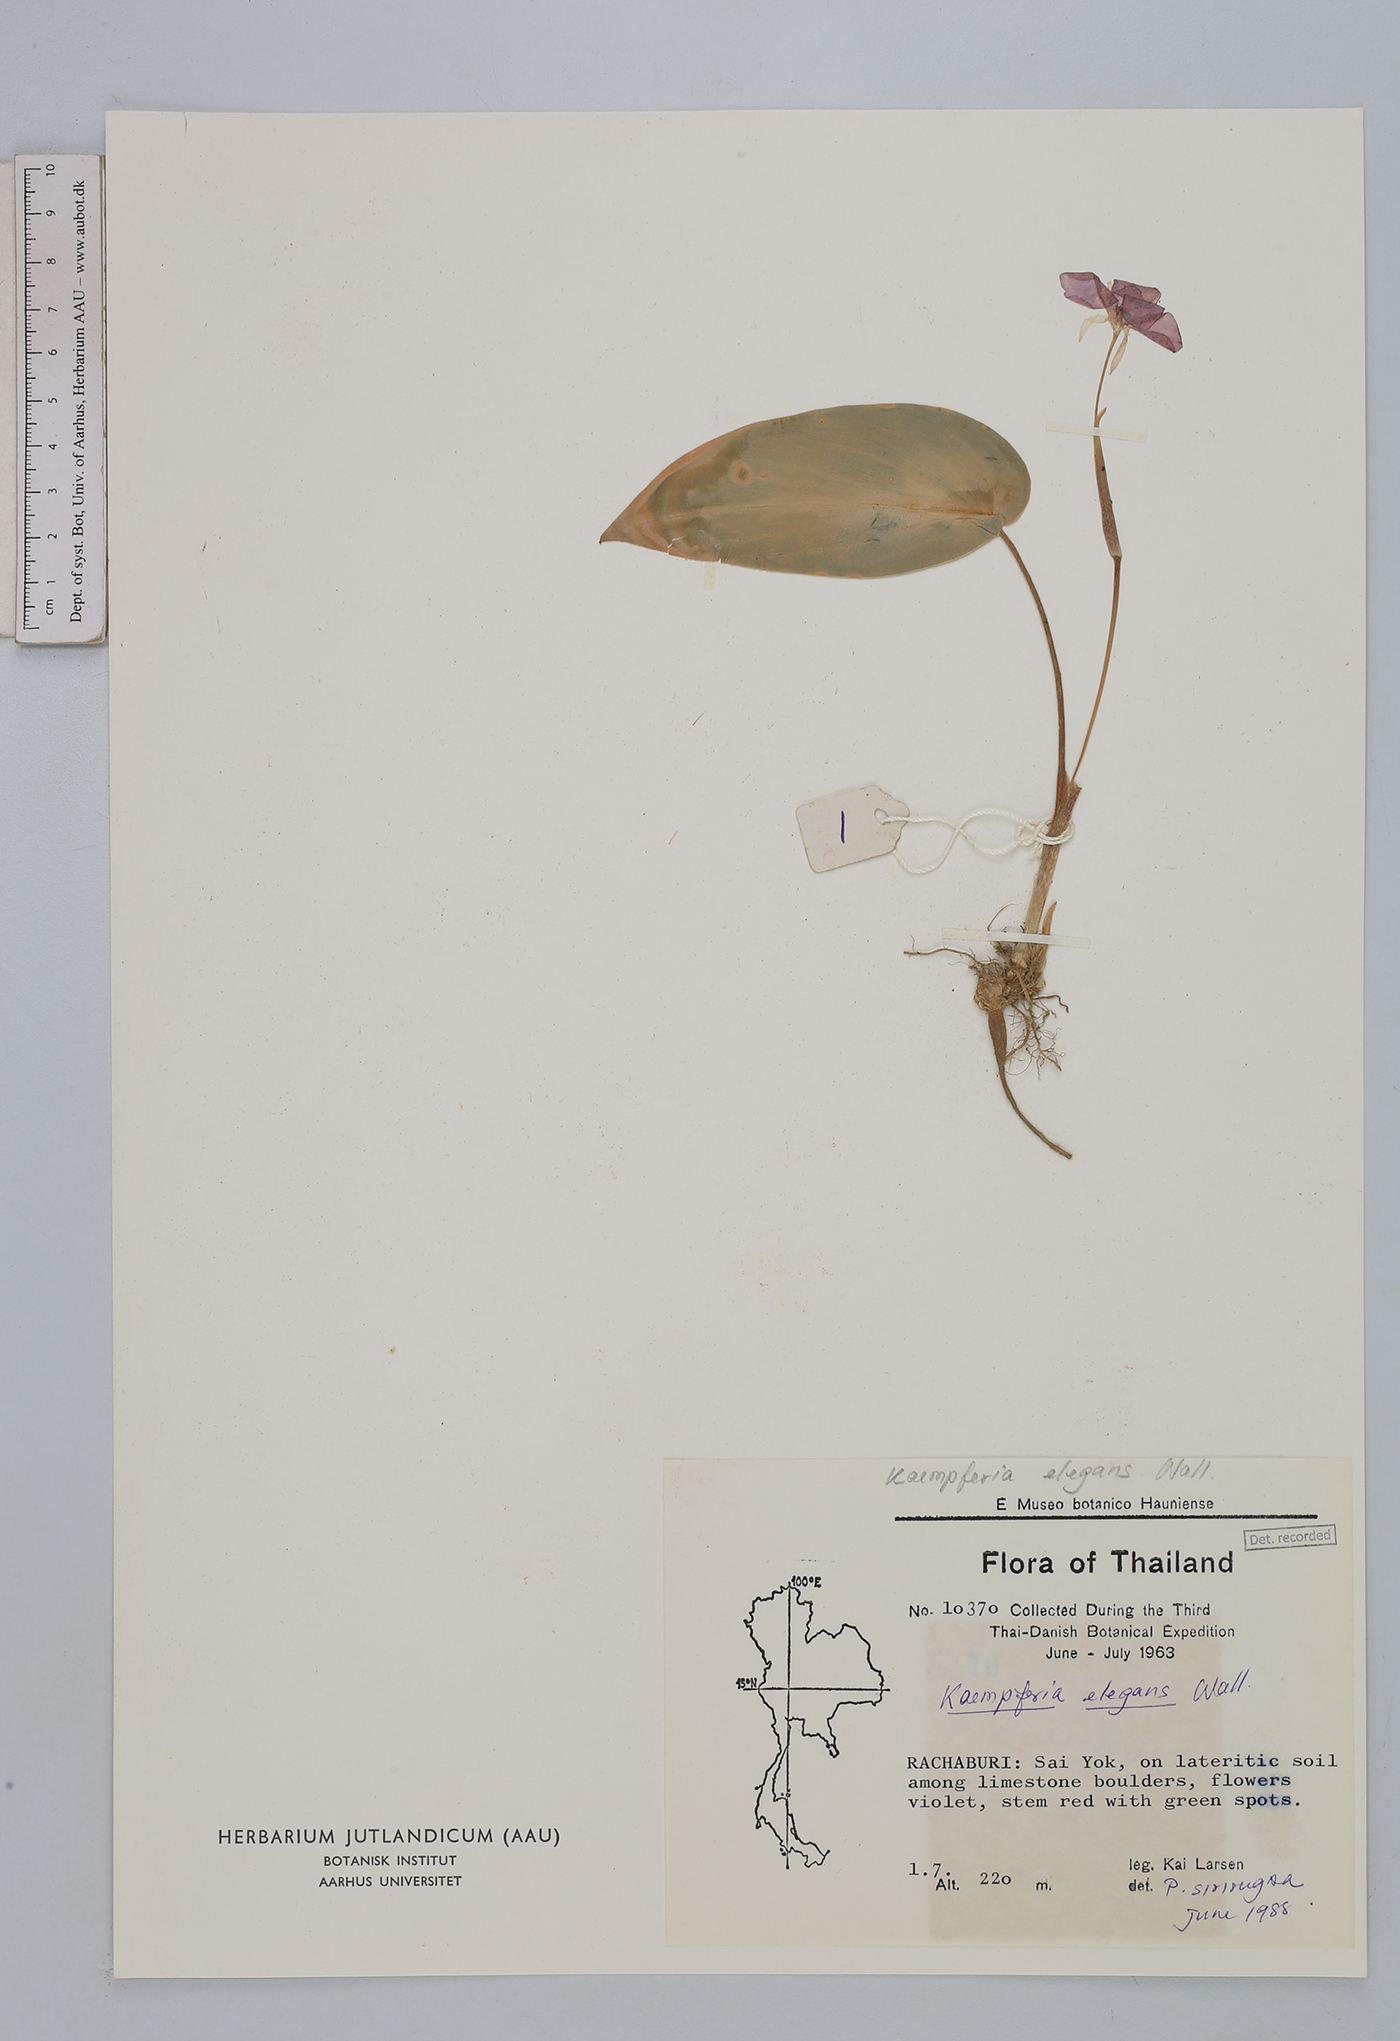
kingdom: Plantae
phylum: Tracheophyta
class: Liliopsida
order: Zingiberales
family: Zingiberaceae
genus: Kaempferia
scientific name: Kaempferia elegans
